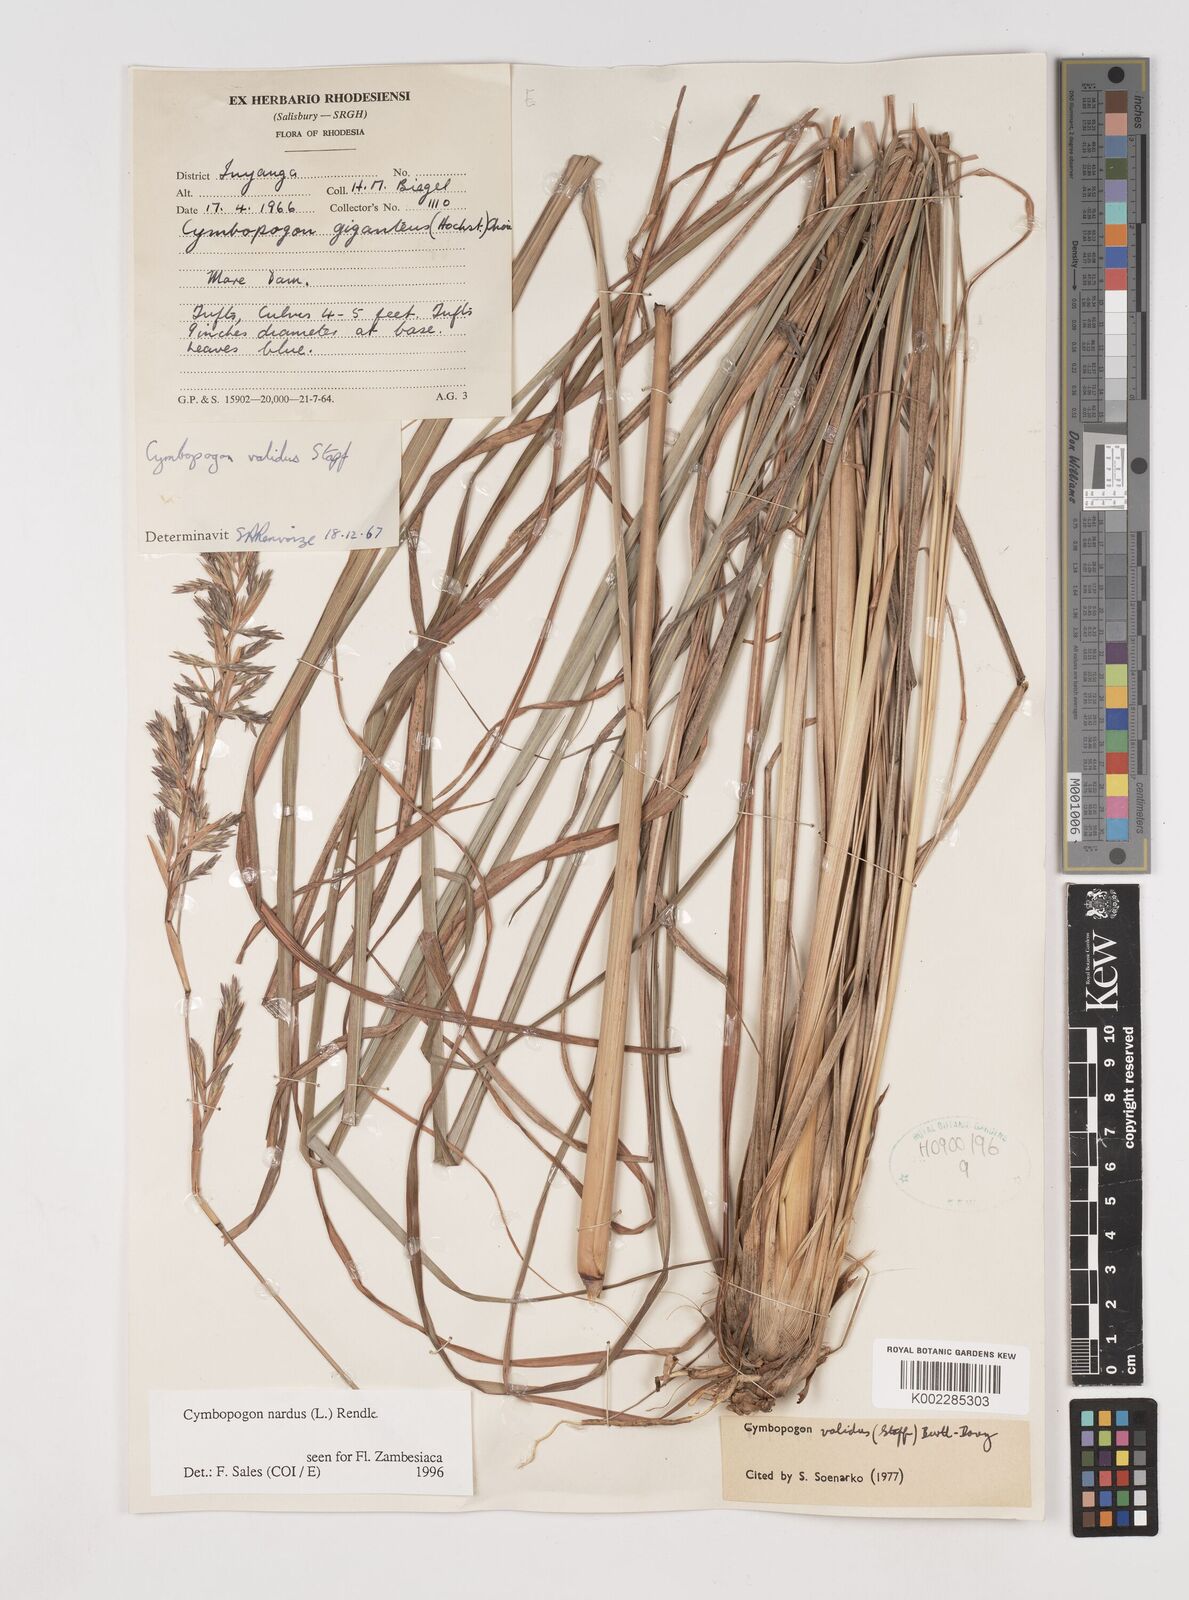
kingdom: Plantae
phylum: Tracheophyta
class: Liliopsida
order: Poales
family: Poaceae
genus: Cymbopogon
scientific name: Cymbopogon nardus
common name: Giant turpentine grass
